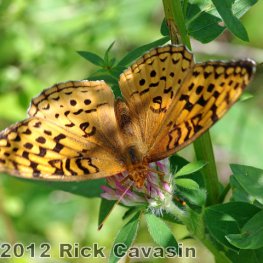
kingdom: Animalia
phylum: Arthropoda
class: Insecta
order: Lepidoptera
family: Nymphalidae
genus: Speyeria
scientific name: Speyeria aphrodite
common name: Aphrodite Fritillary
